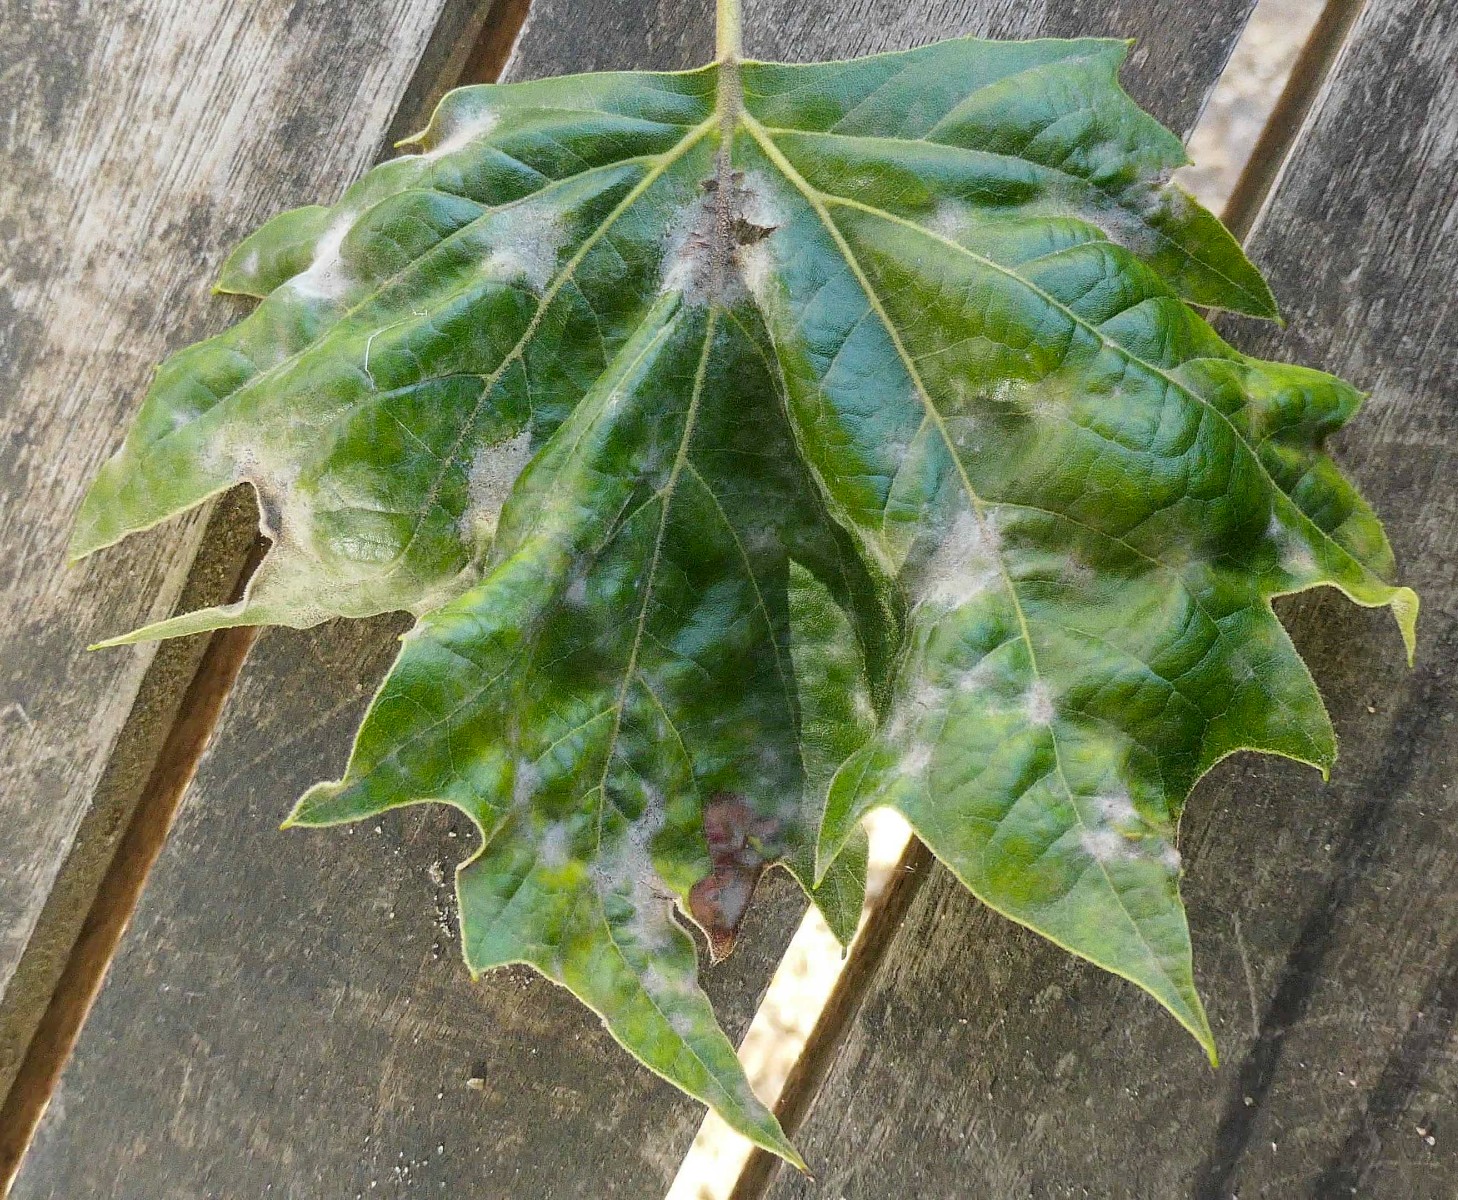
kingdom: Fungi
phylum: Ascomycota
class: Leotiomycetes
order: Helotiales
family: Erysiphaceae
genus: Erysiphe
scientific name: Erysiphe platani
